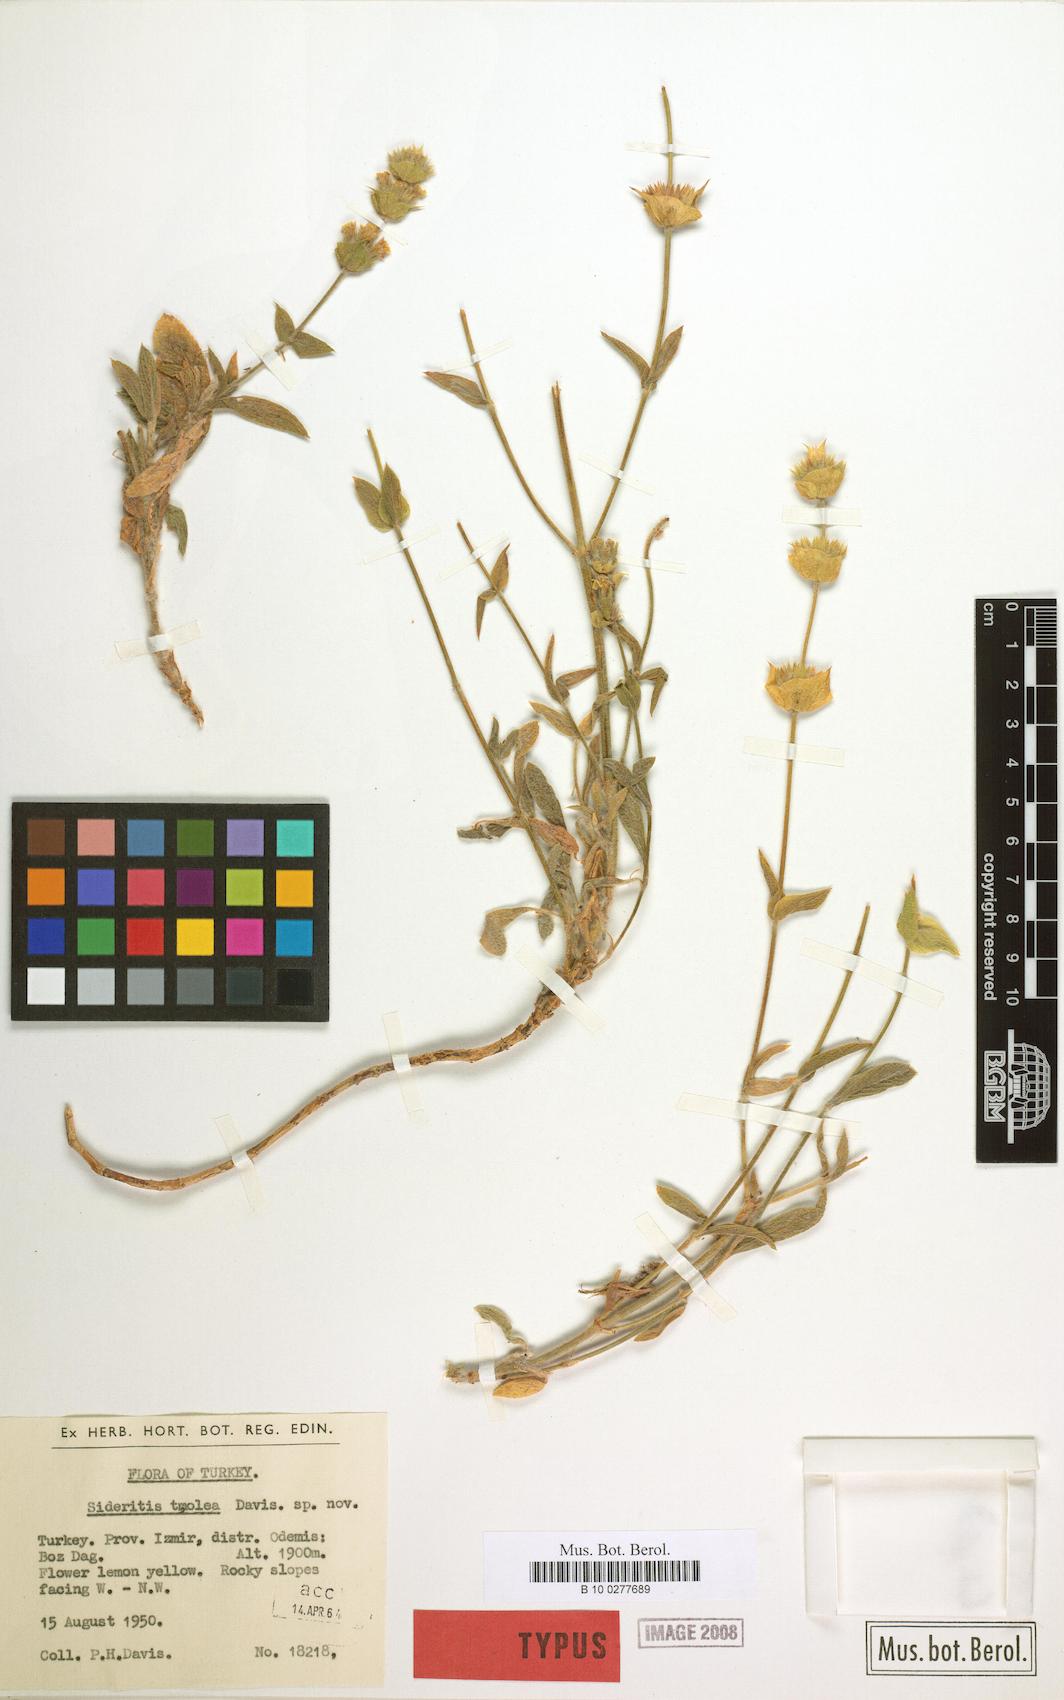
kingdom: Plantae
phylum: Tracheophyta
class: Magnoliopsida
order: Lamiales
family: Lamiaceae
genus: Sideritis
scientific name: Sideritis tmolea
